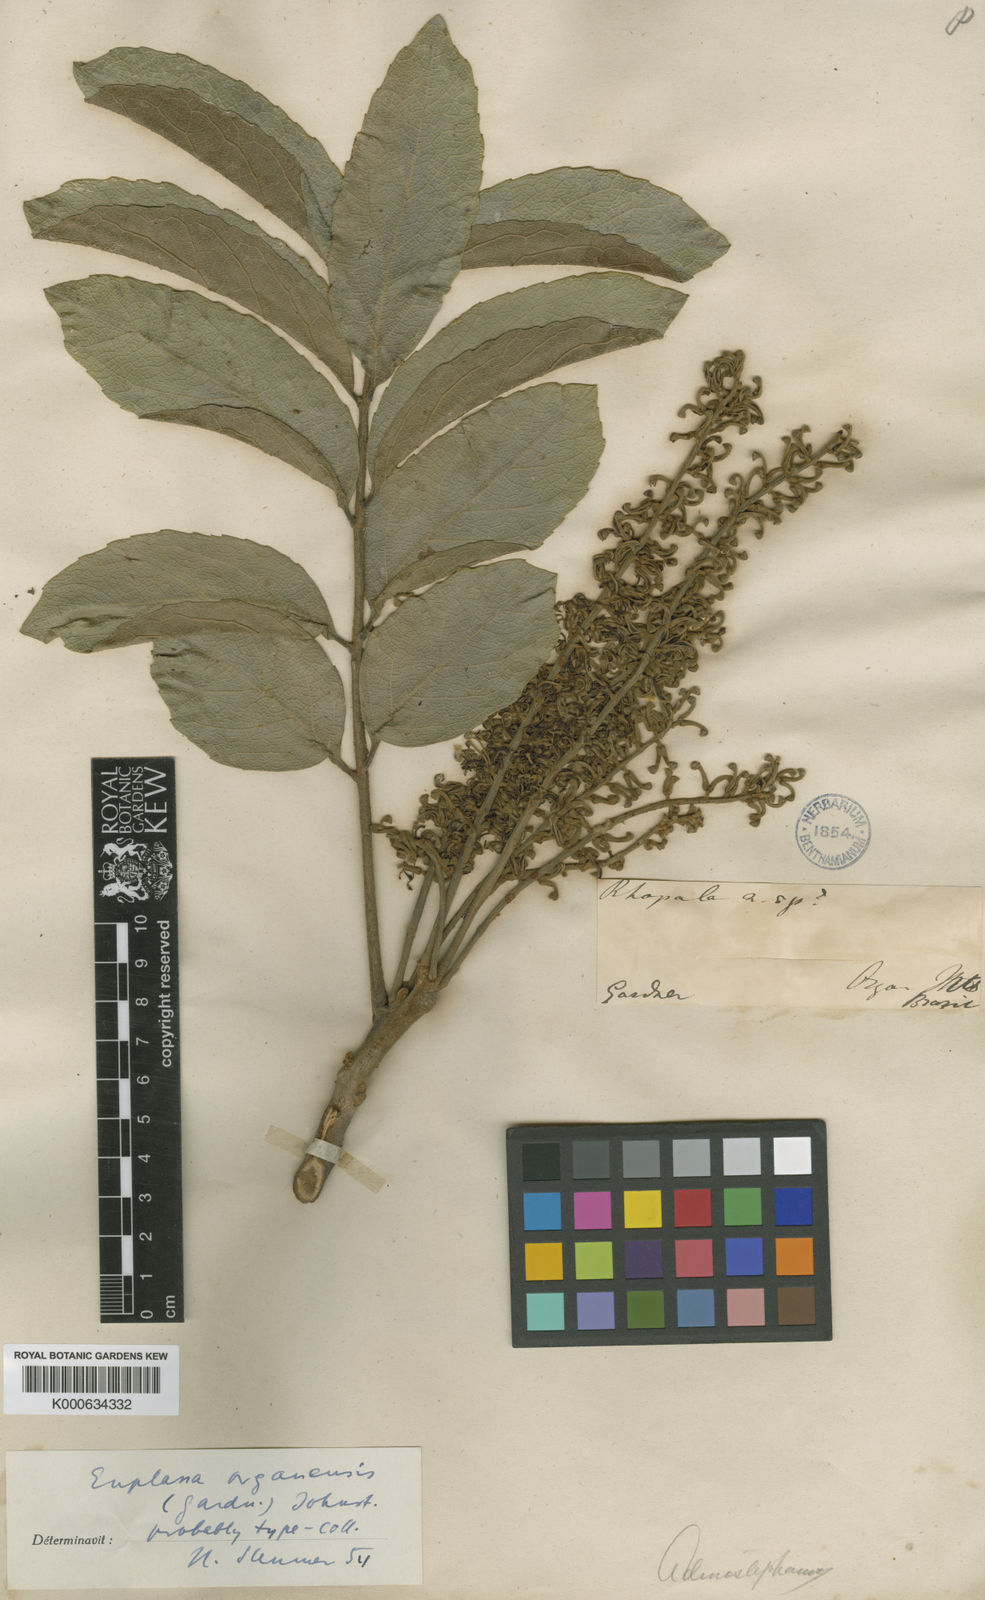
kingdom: Plantae
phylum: Tracheophyta
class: Magnoliopsida
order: Proteales
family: Proteaceae
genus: Euplassa
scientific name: Euplassa organensis
